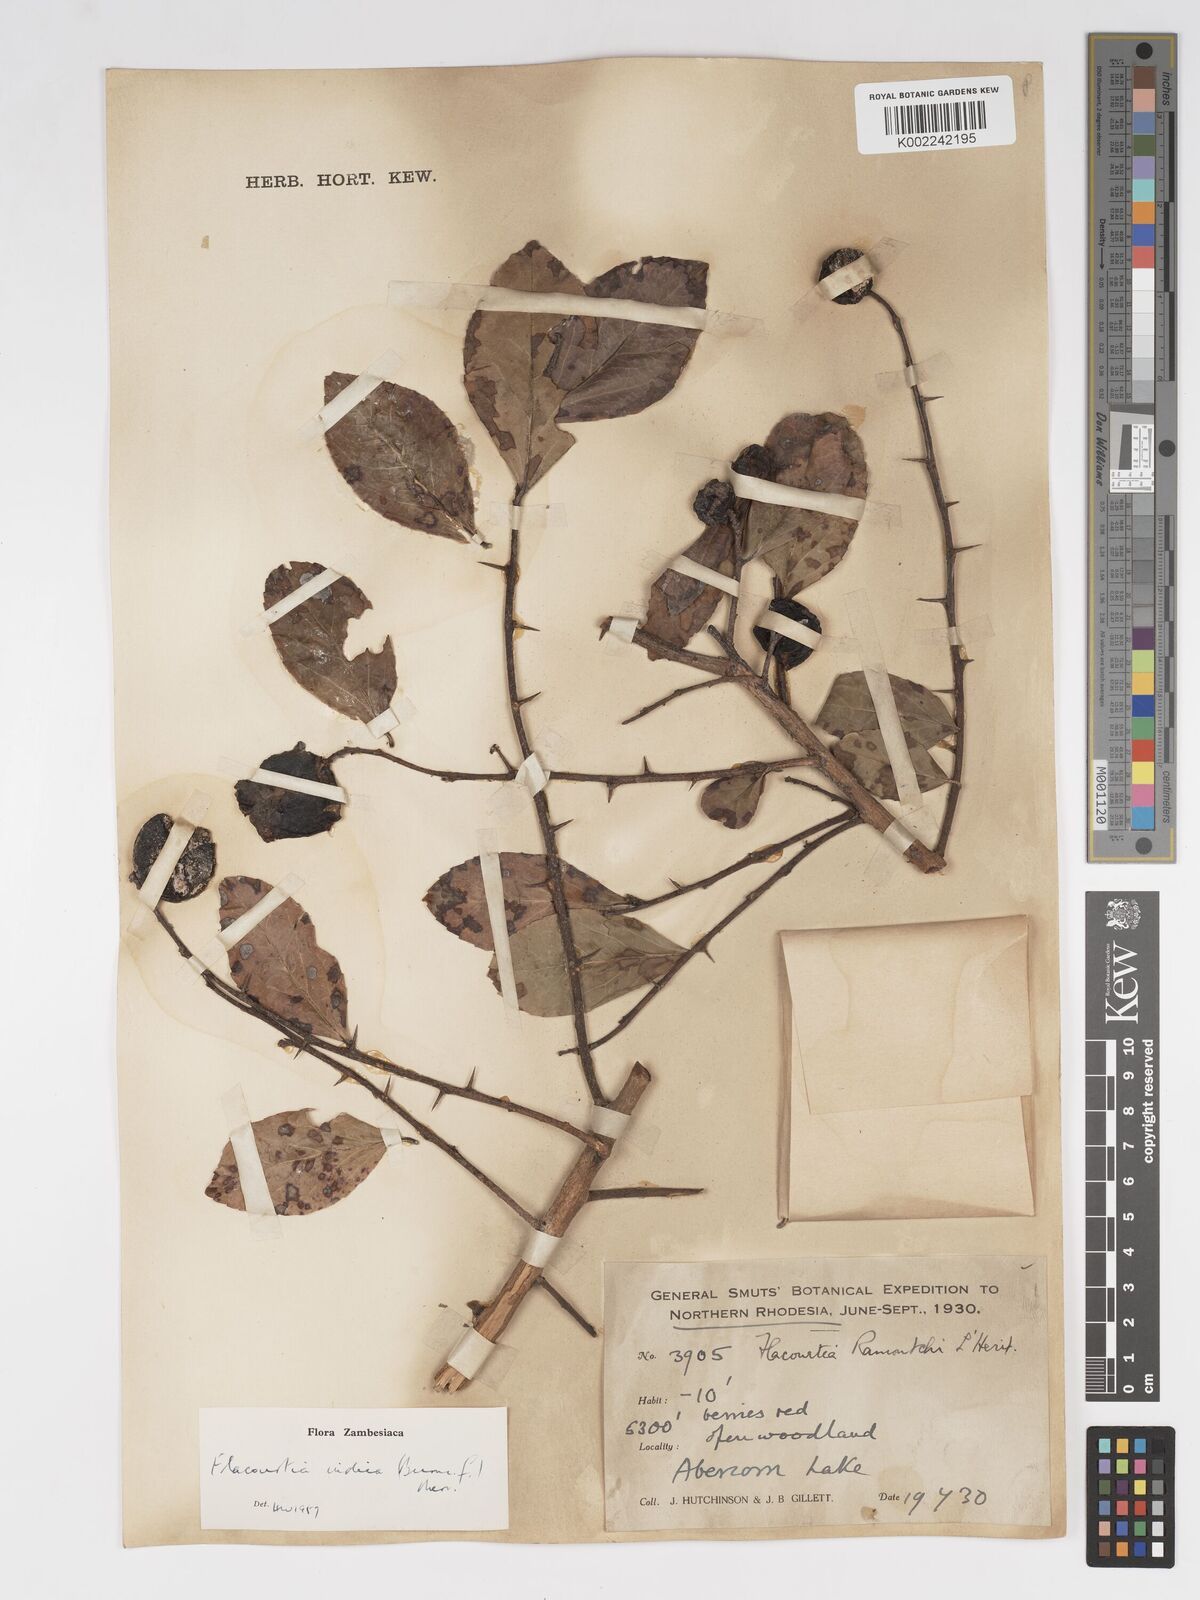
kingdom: Plantae
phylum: Tracheophyta
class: Magnoliopsida
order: Malpighiales
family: Salicaceae
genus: Flacourtia
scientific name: Flacourtia indica
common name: Governor's plum
